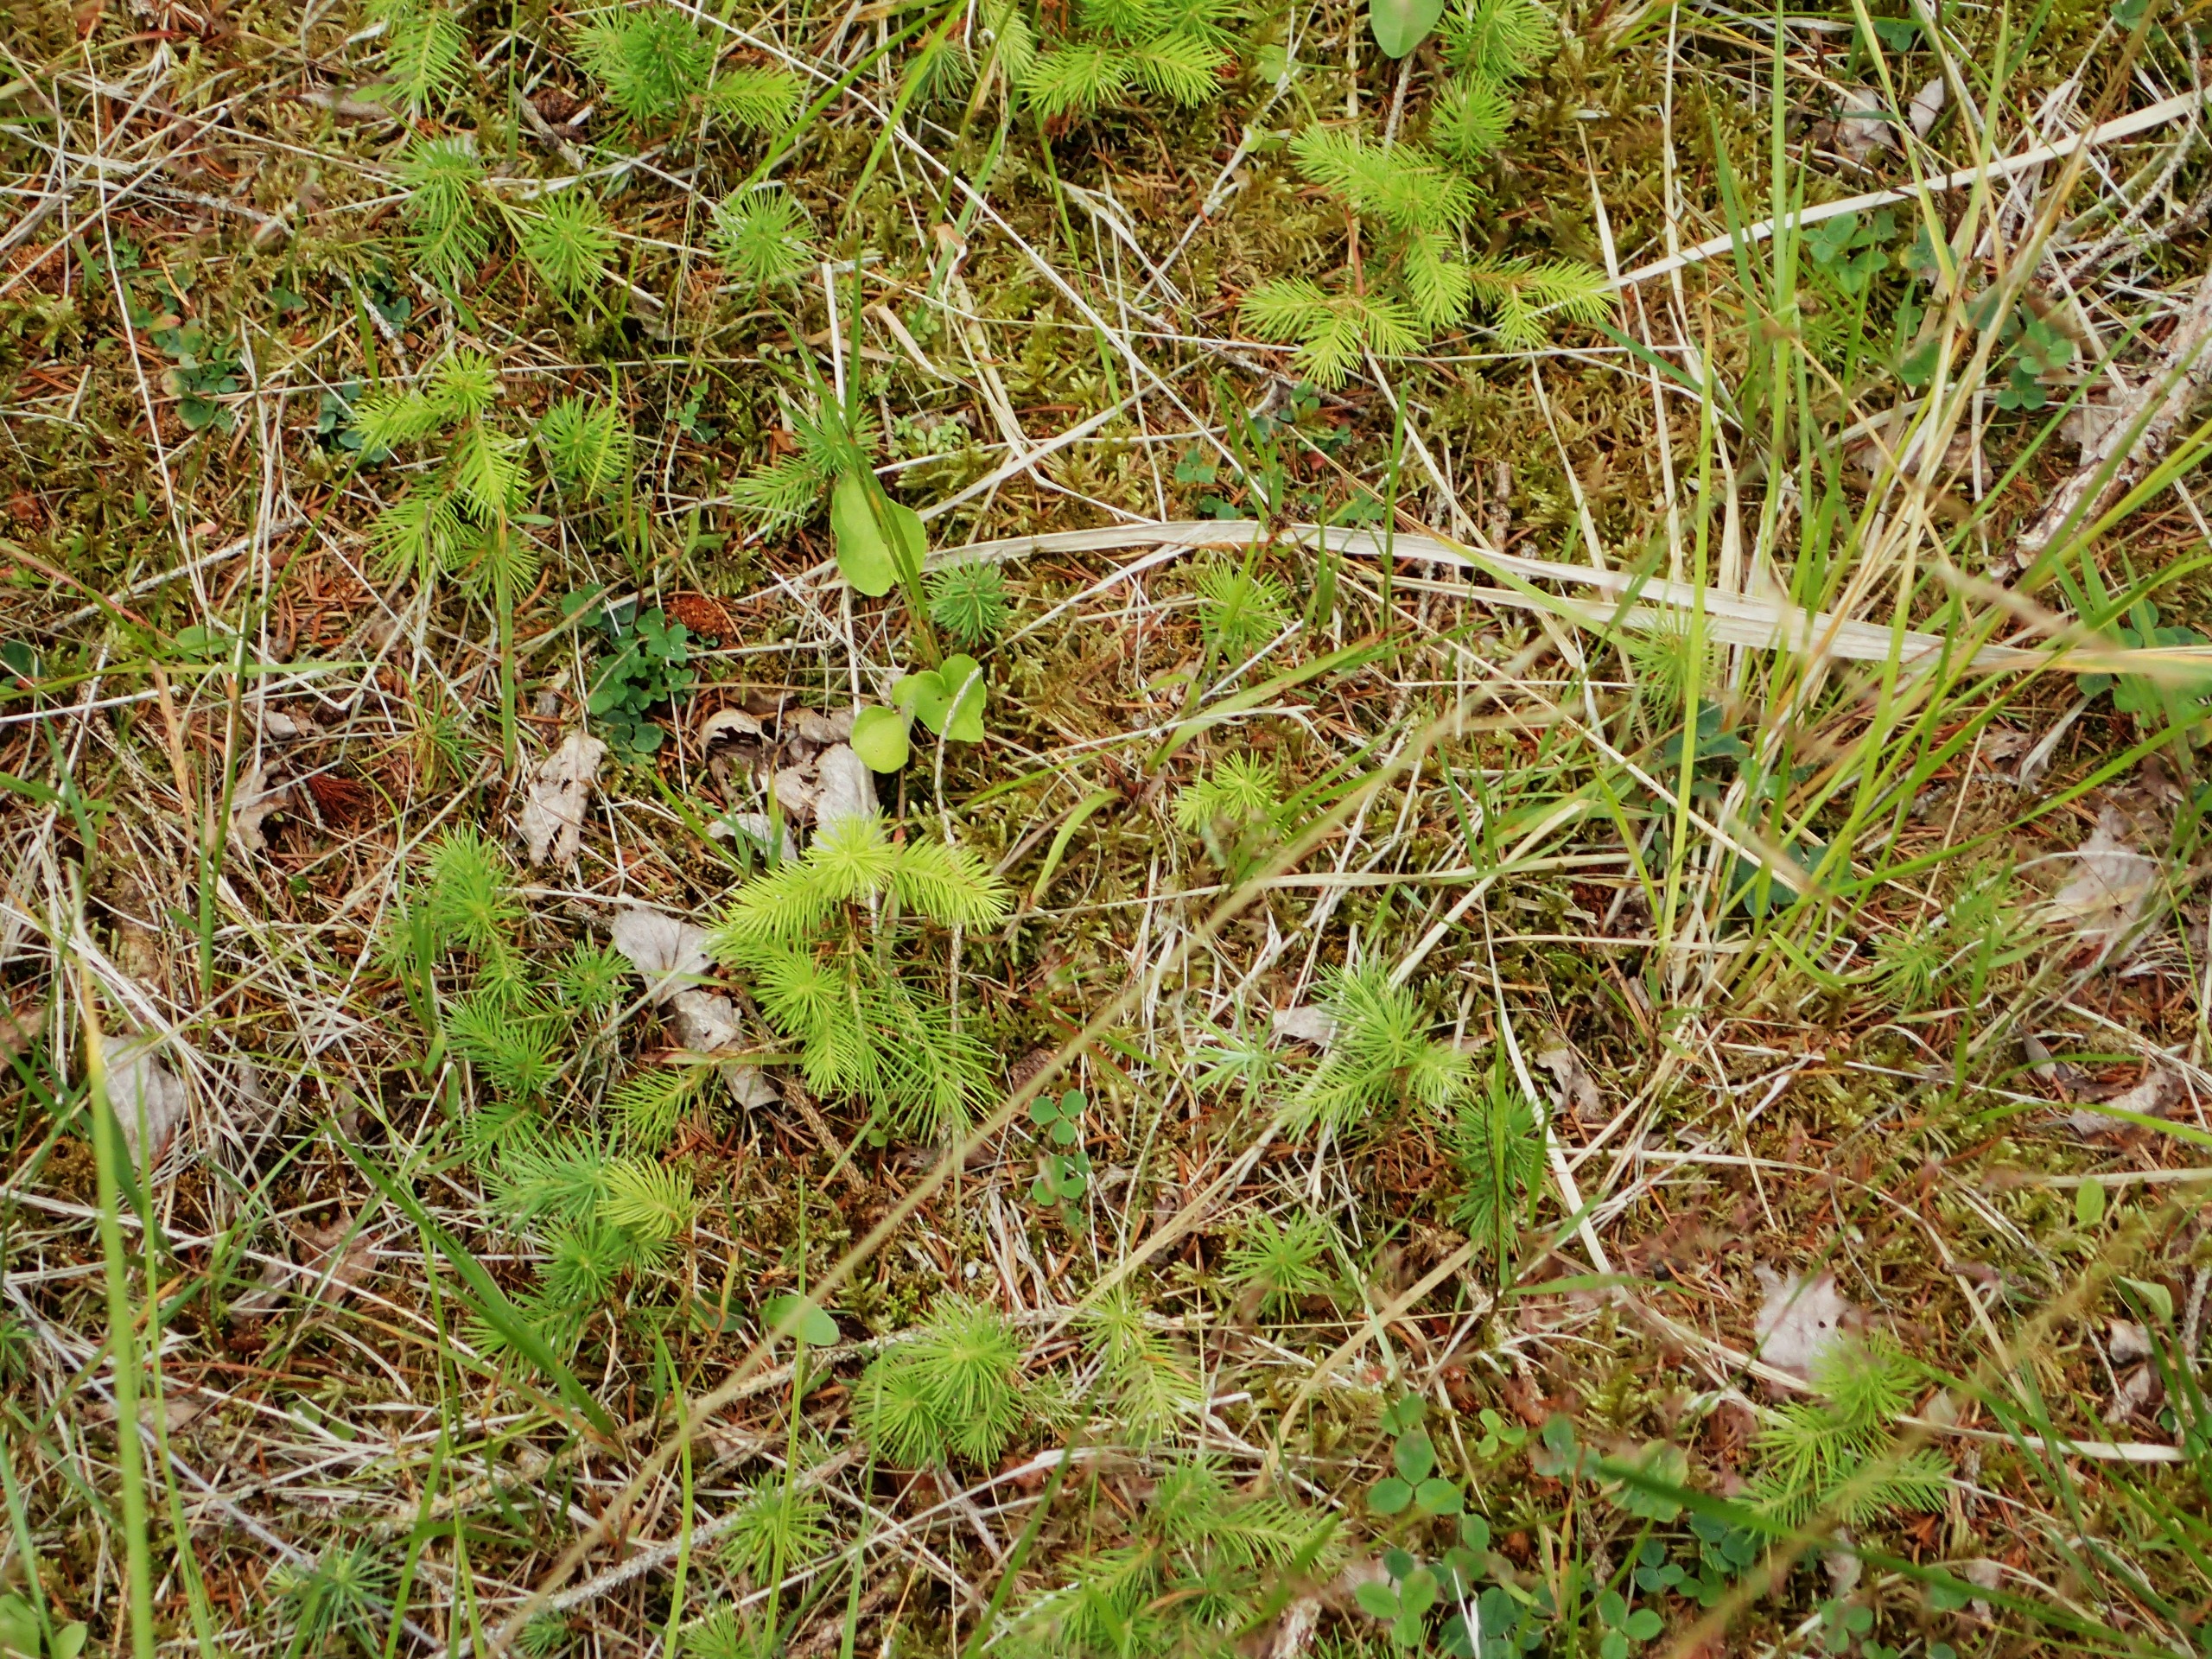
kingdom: Plantae
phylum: Tracheophyta
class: Pinopsida
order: Pinales
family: Pinaceae
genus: Picea
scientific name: Picea abies
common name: Rød-gran
